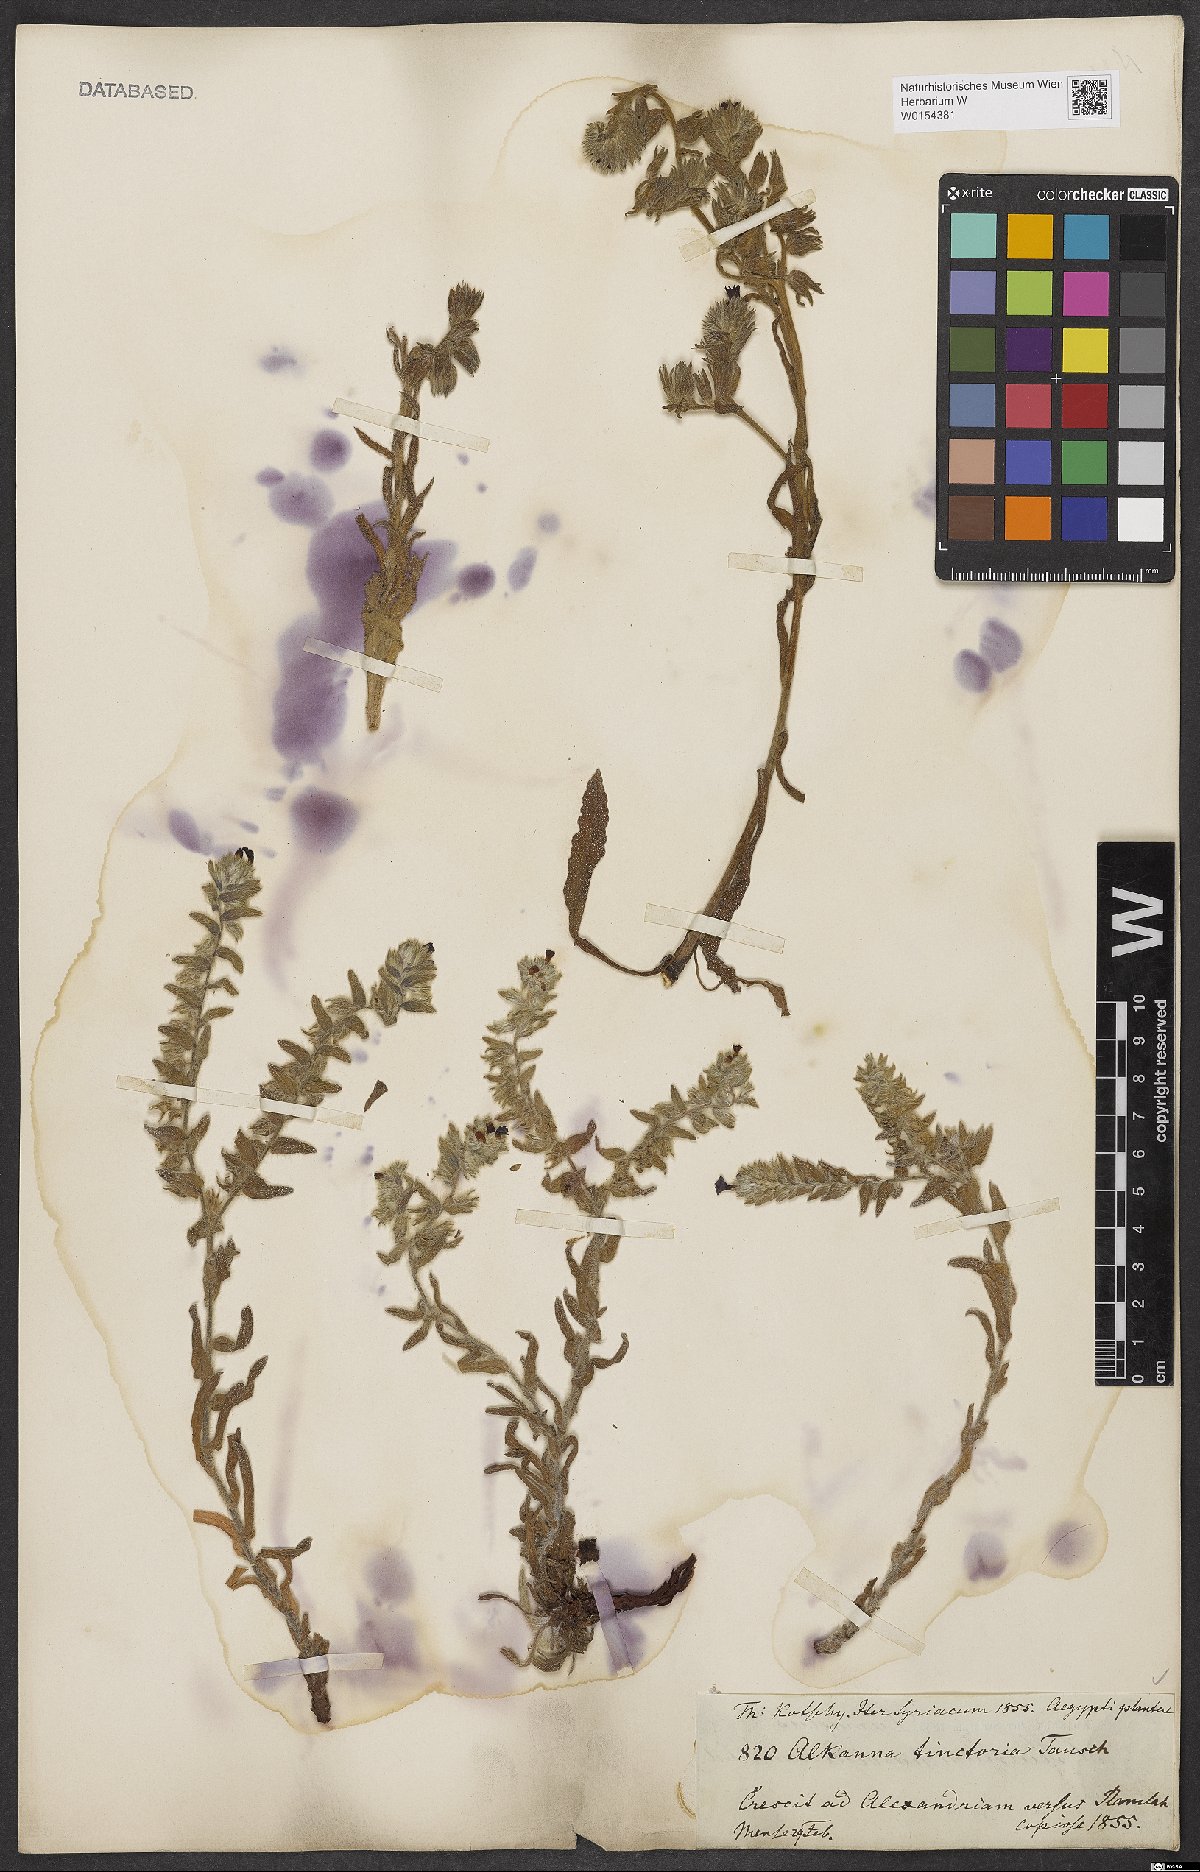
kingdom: Plantae
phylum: Tracheophyta
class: Magnoliopsida
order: Boraginales
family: Boraginaceae
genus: Alkanna
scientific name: Alkanna tinctoria
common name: Dyer's-alkanet
